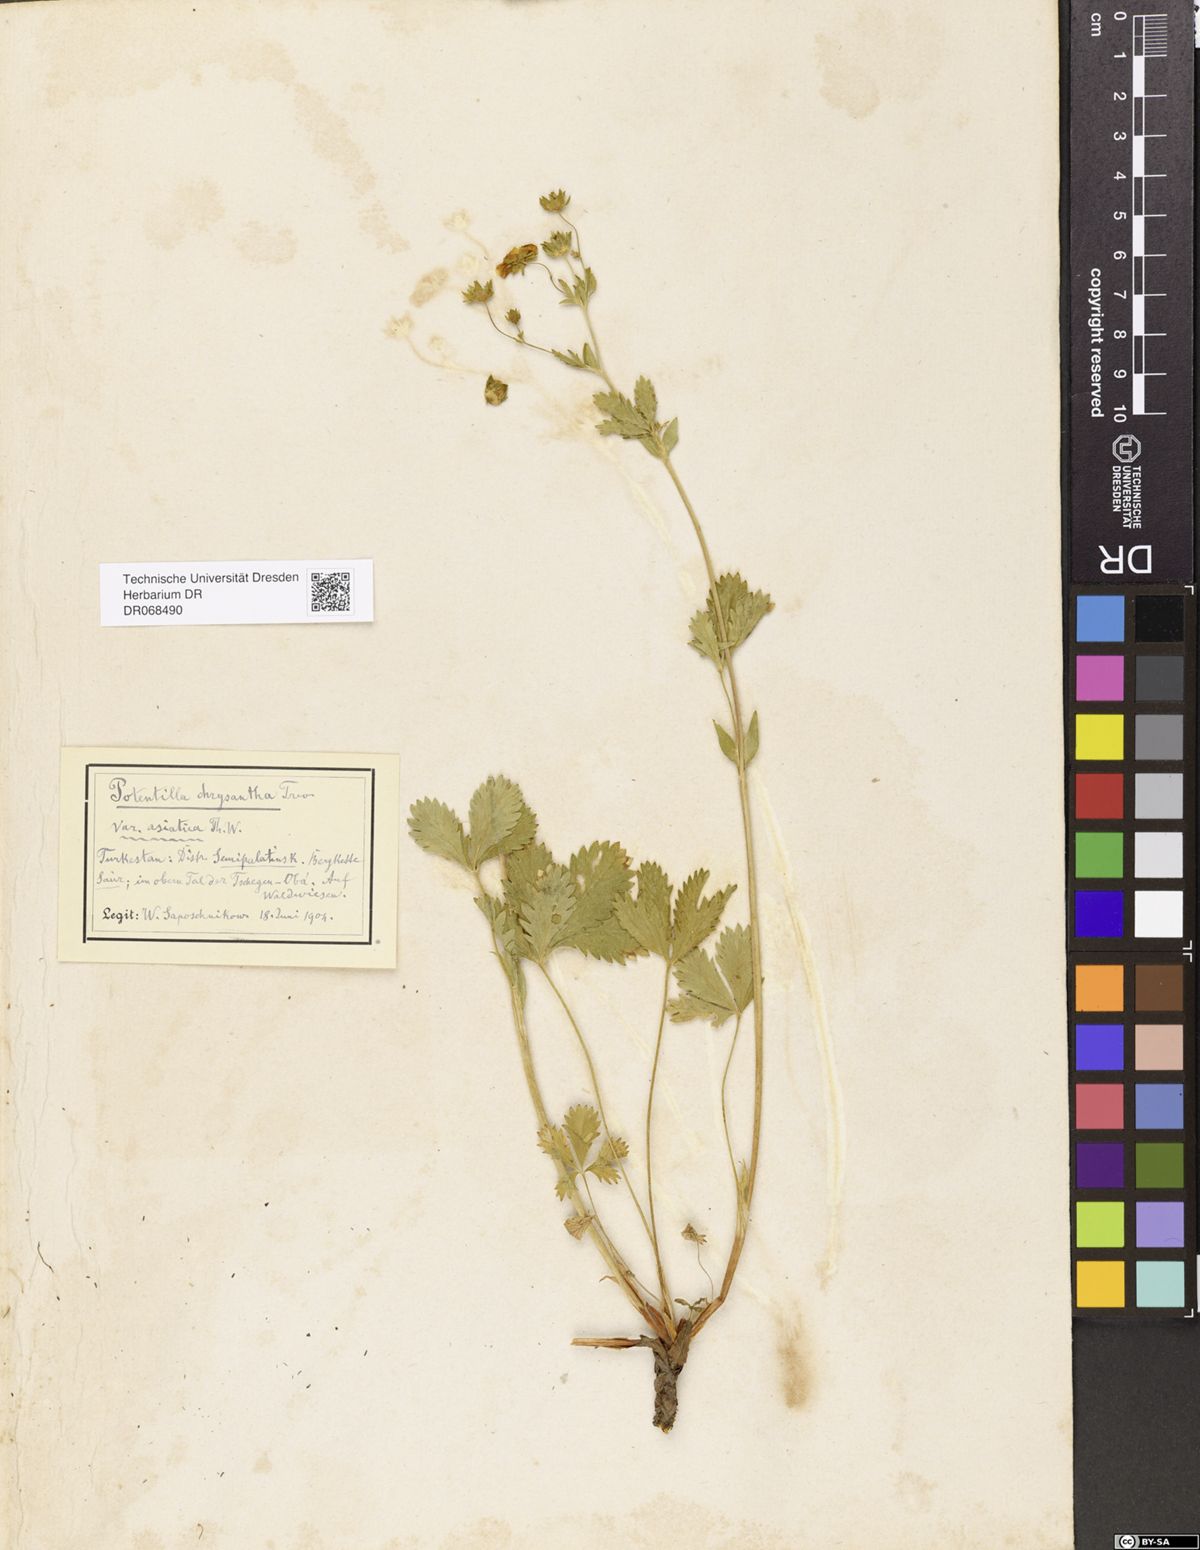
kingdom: Plantae
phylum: Tracheophyta
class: Magnoliopsida
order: Rosales
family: Rosaceae
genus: Potentilla
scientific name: Potentilla asiatica
